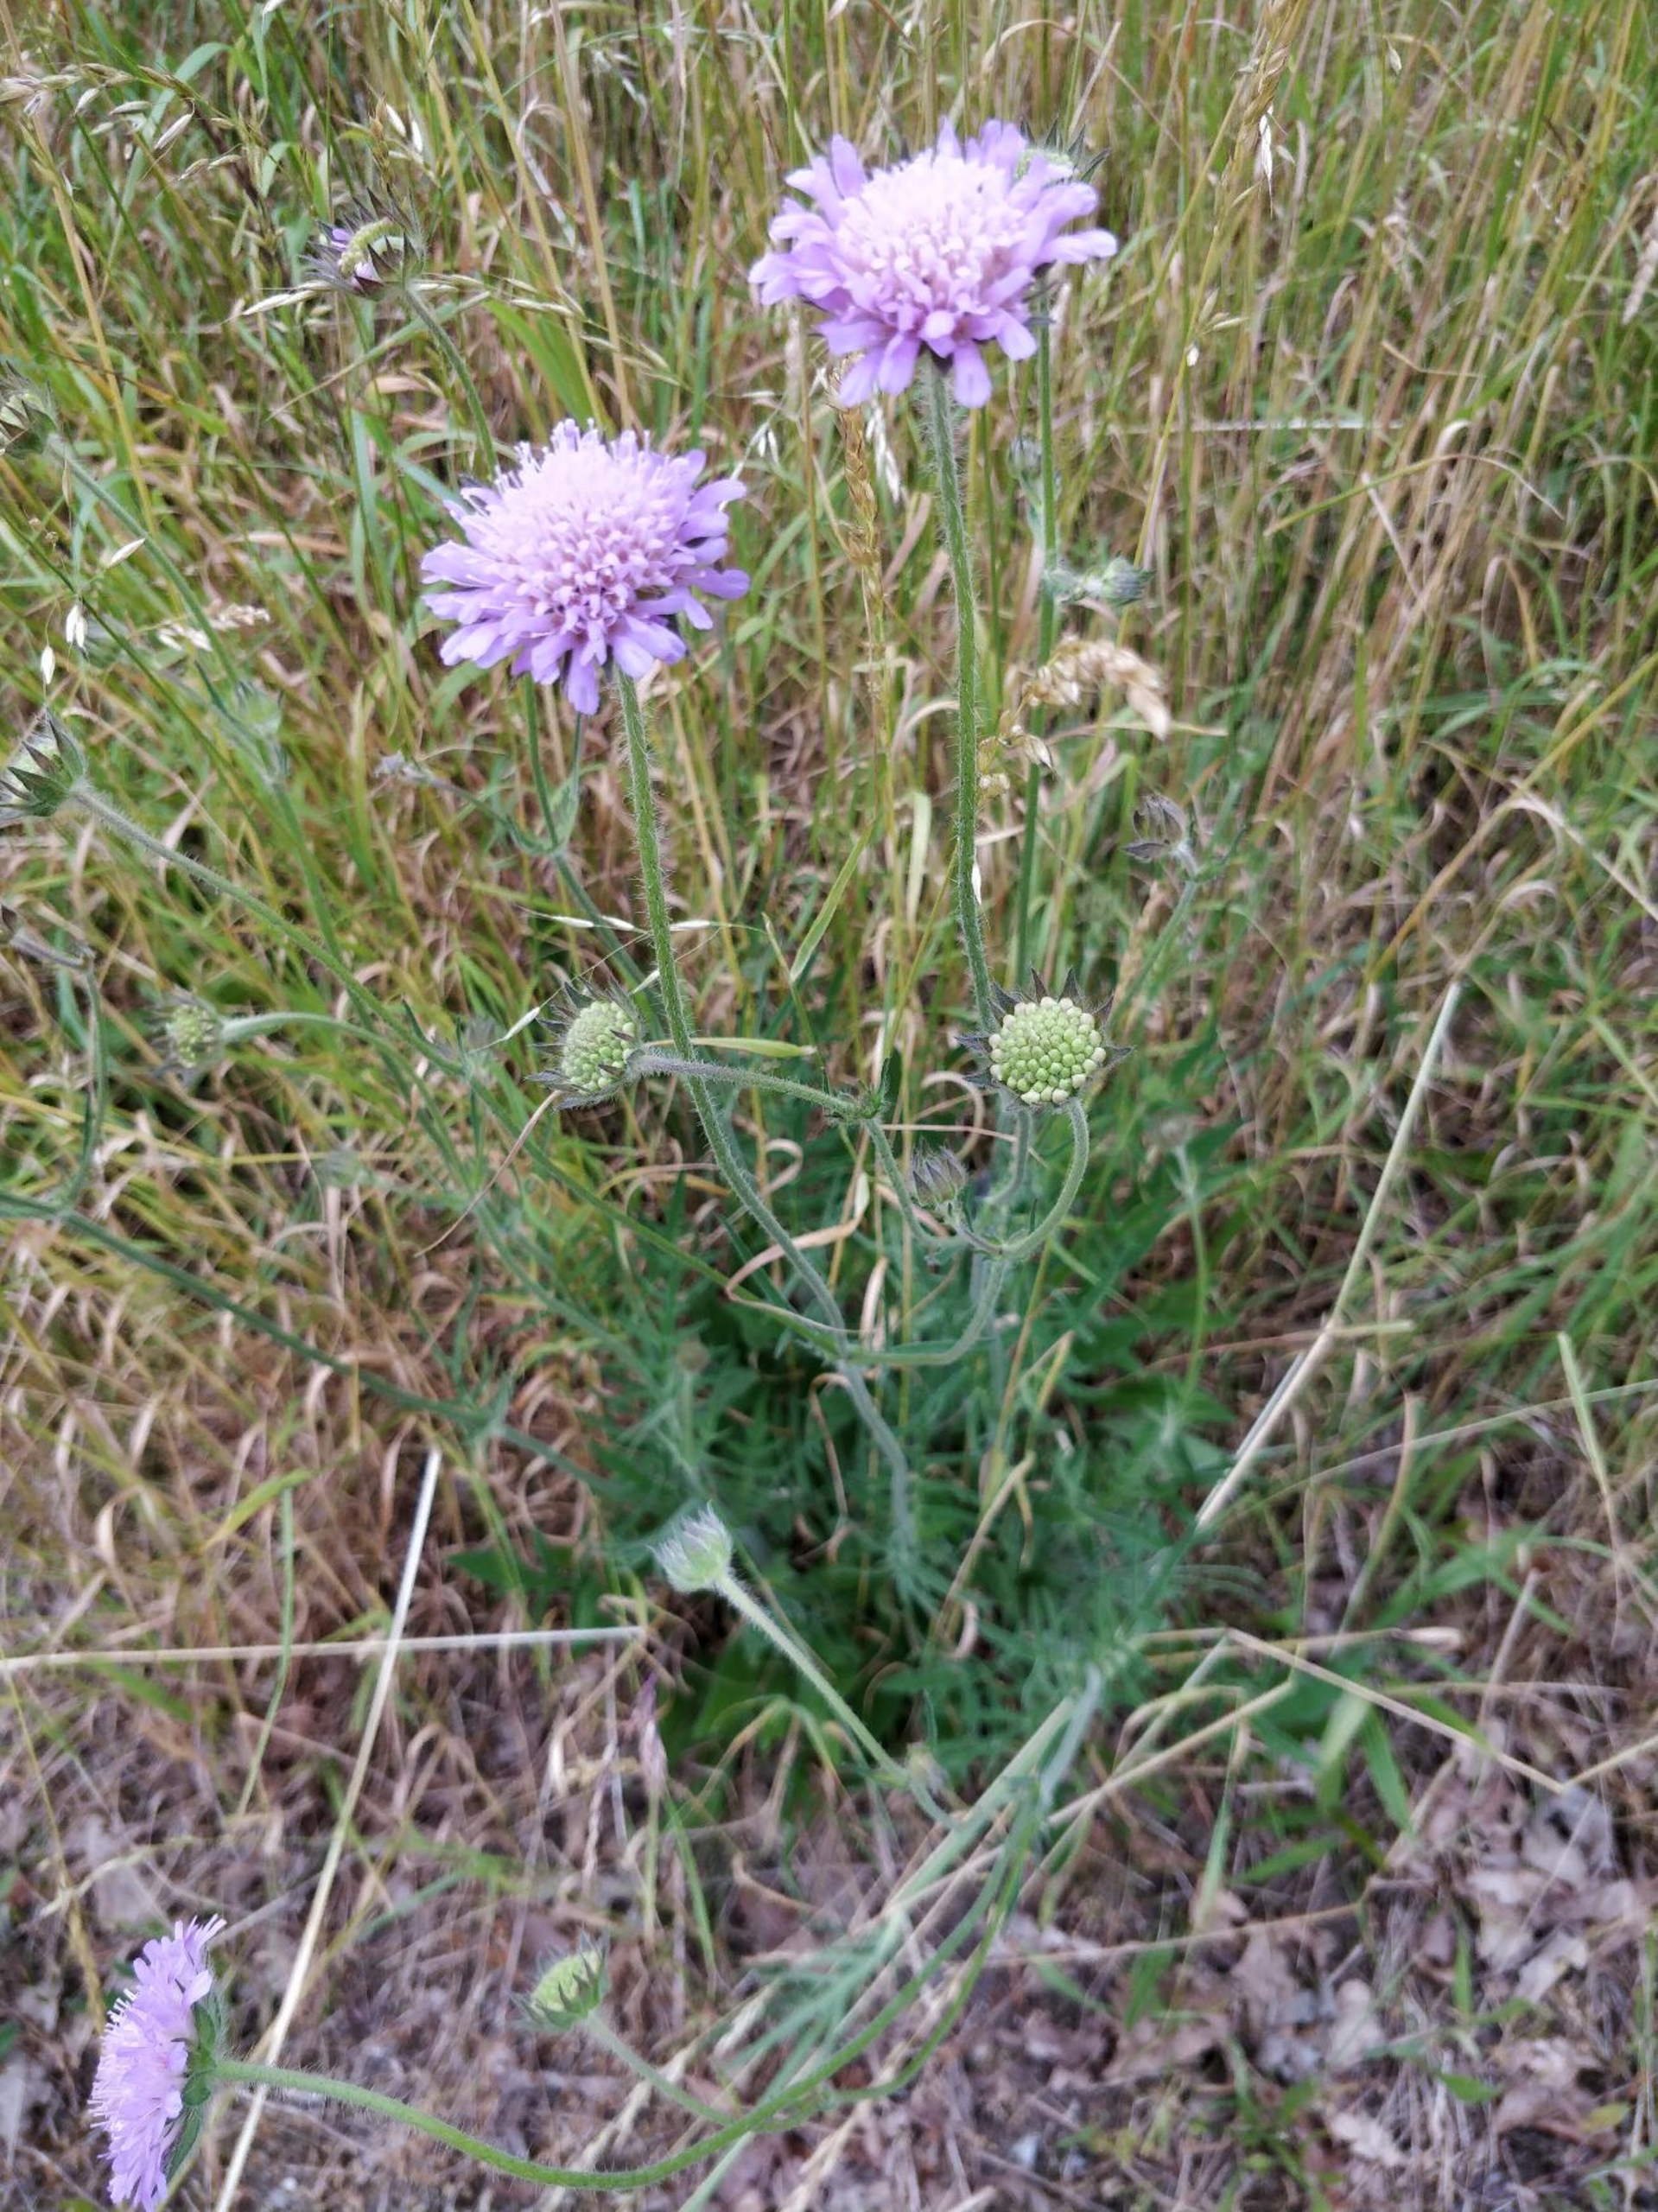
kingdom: Plantae
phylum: Tracheophyta
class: Magnoliopsida
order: Dipsacales
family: Caprifoliaceae
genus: Knautia
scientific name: Knautia arvensis
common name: Blåhat
